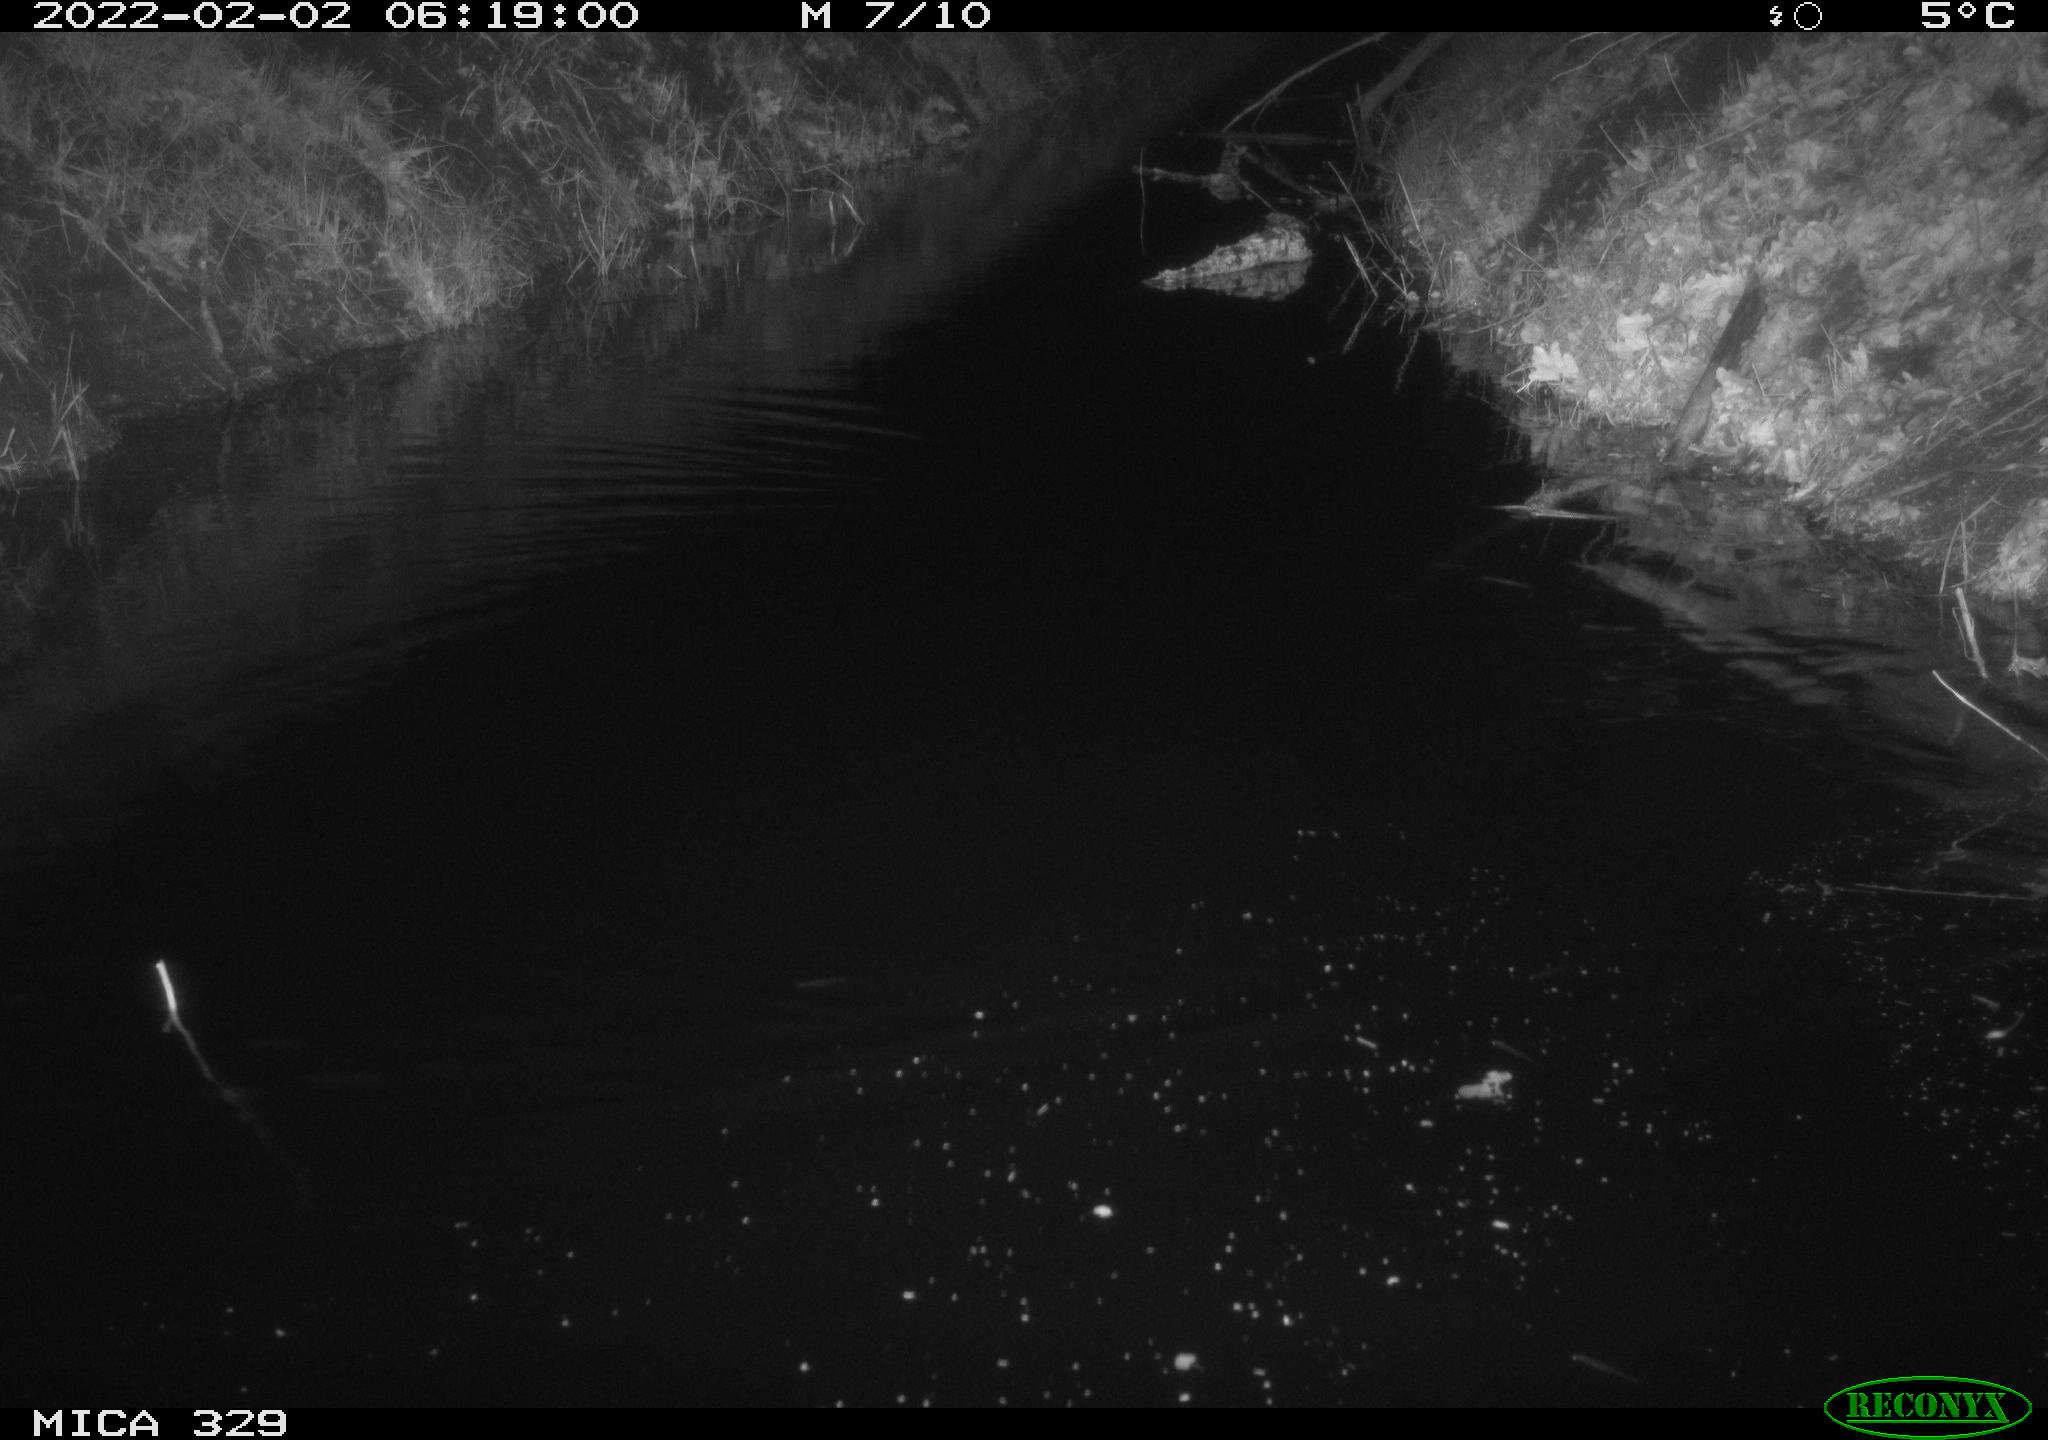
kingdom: Animalia
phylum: Chordata
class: Mammalia
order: Rodentia
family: Muridae
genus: Rattus
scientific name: Rattus norvegicus
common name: Brown rat
